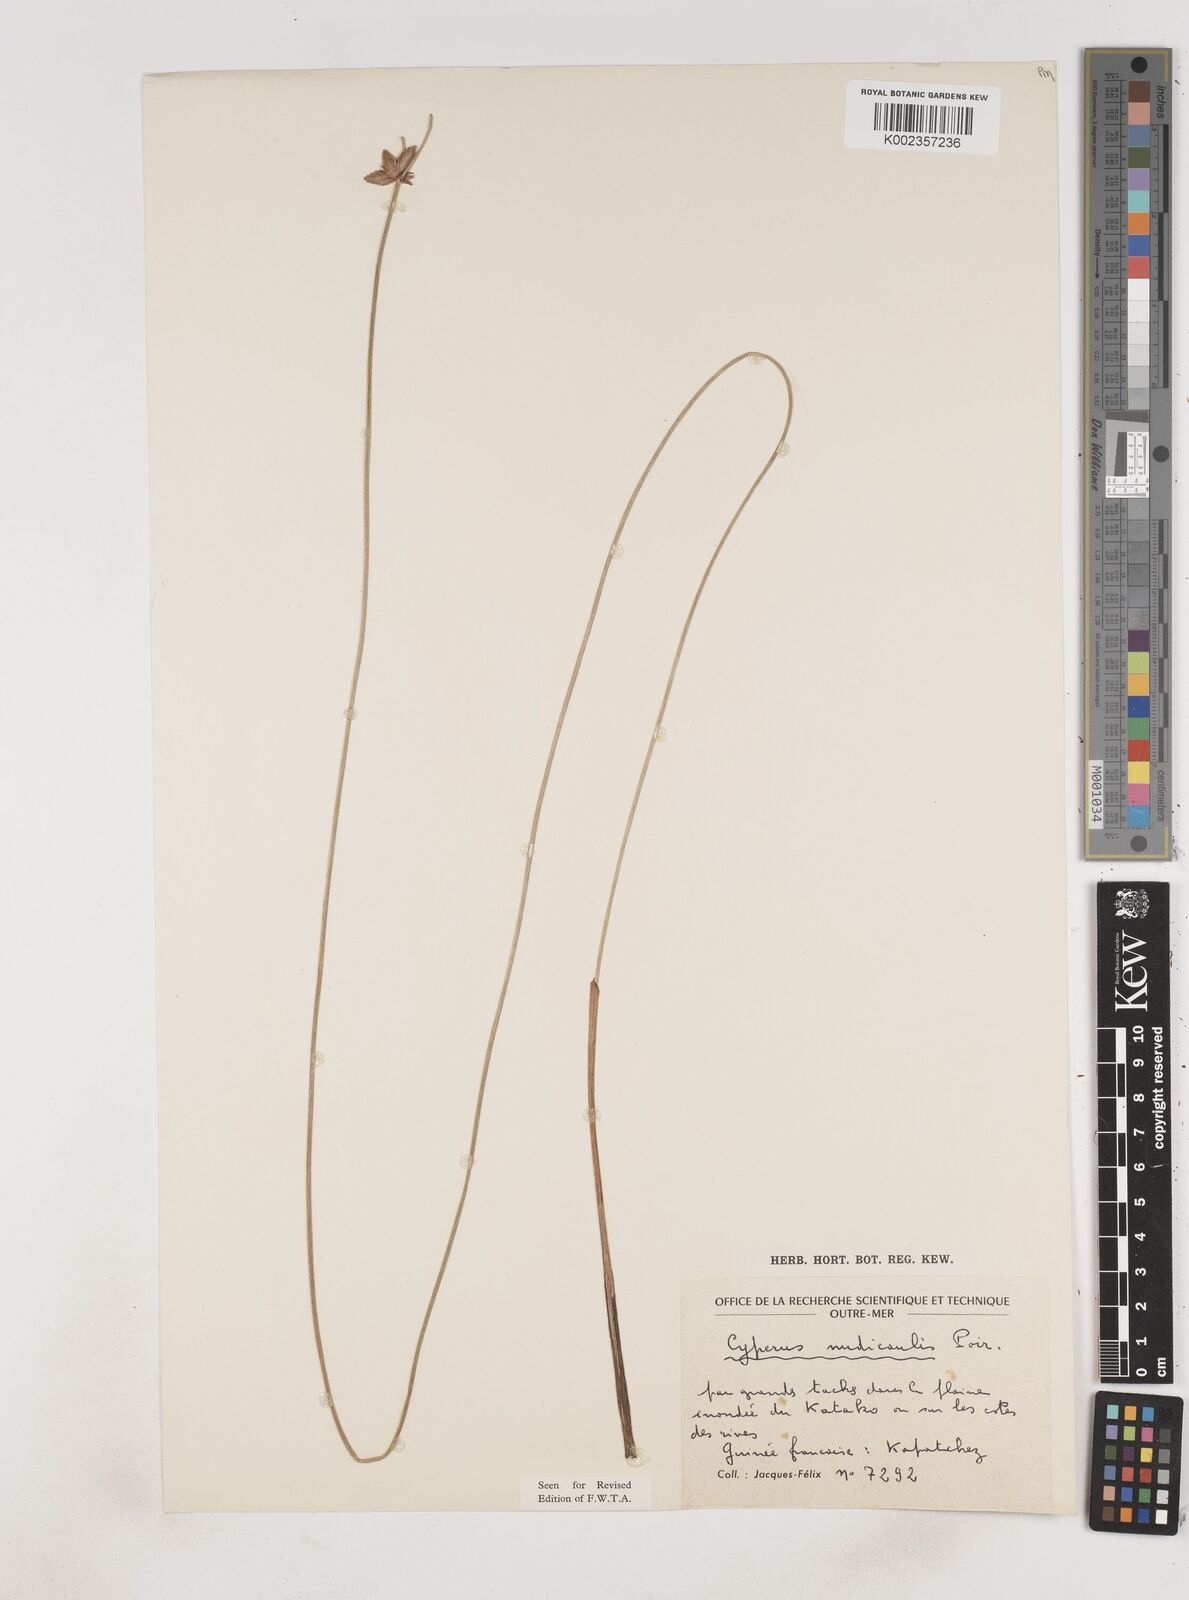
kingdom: Plantae
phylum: Tracheophyta
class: Liliopsida
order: Poales
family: Cyperaceae
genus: Cyperus
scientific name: Cyperus pectinatus
